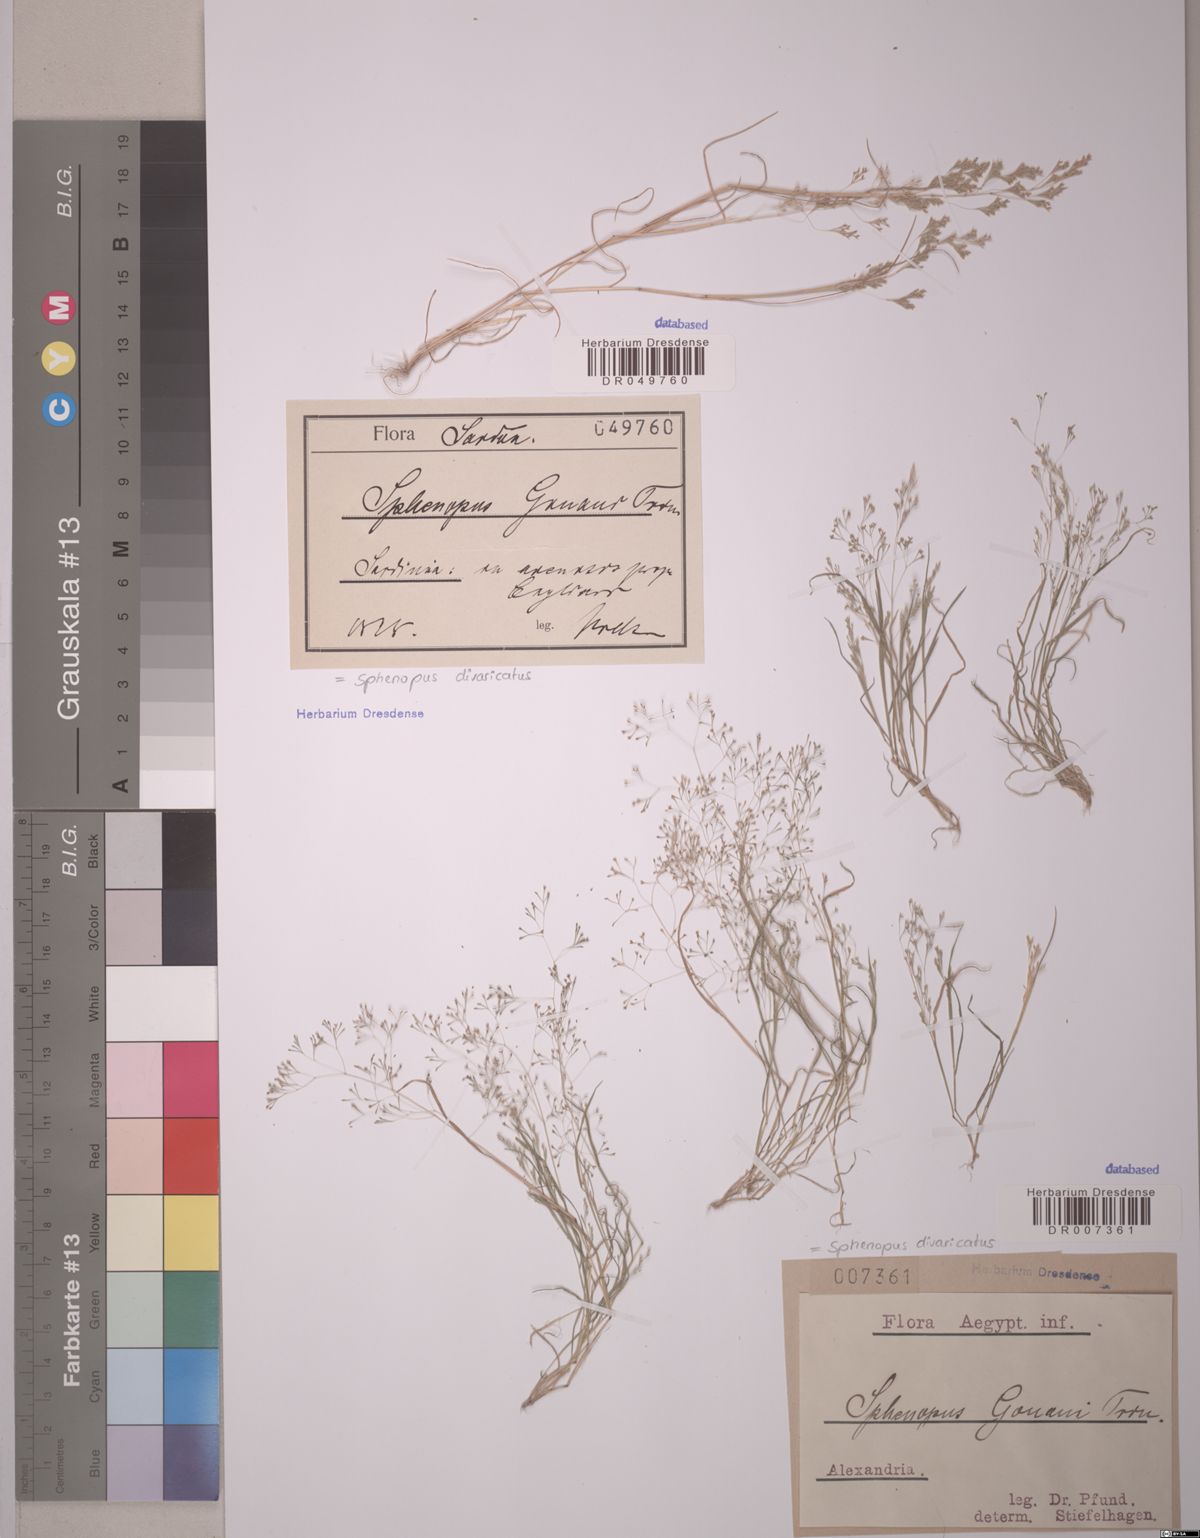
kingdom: Plantae
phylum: Tracheophyta
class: Liliopsida
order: Poales
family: Poaceae
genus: Sphenopus
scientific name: Sphenopus divaricatus
